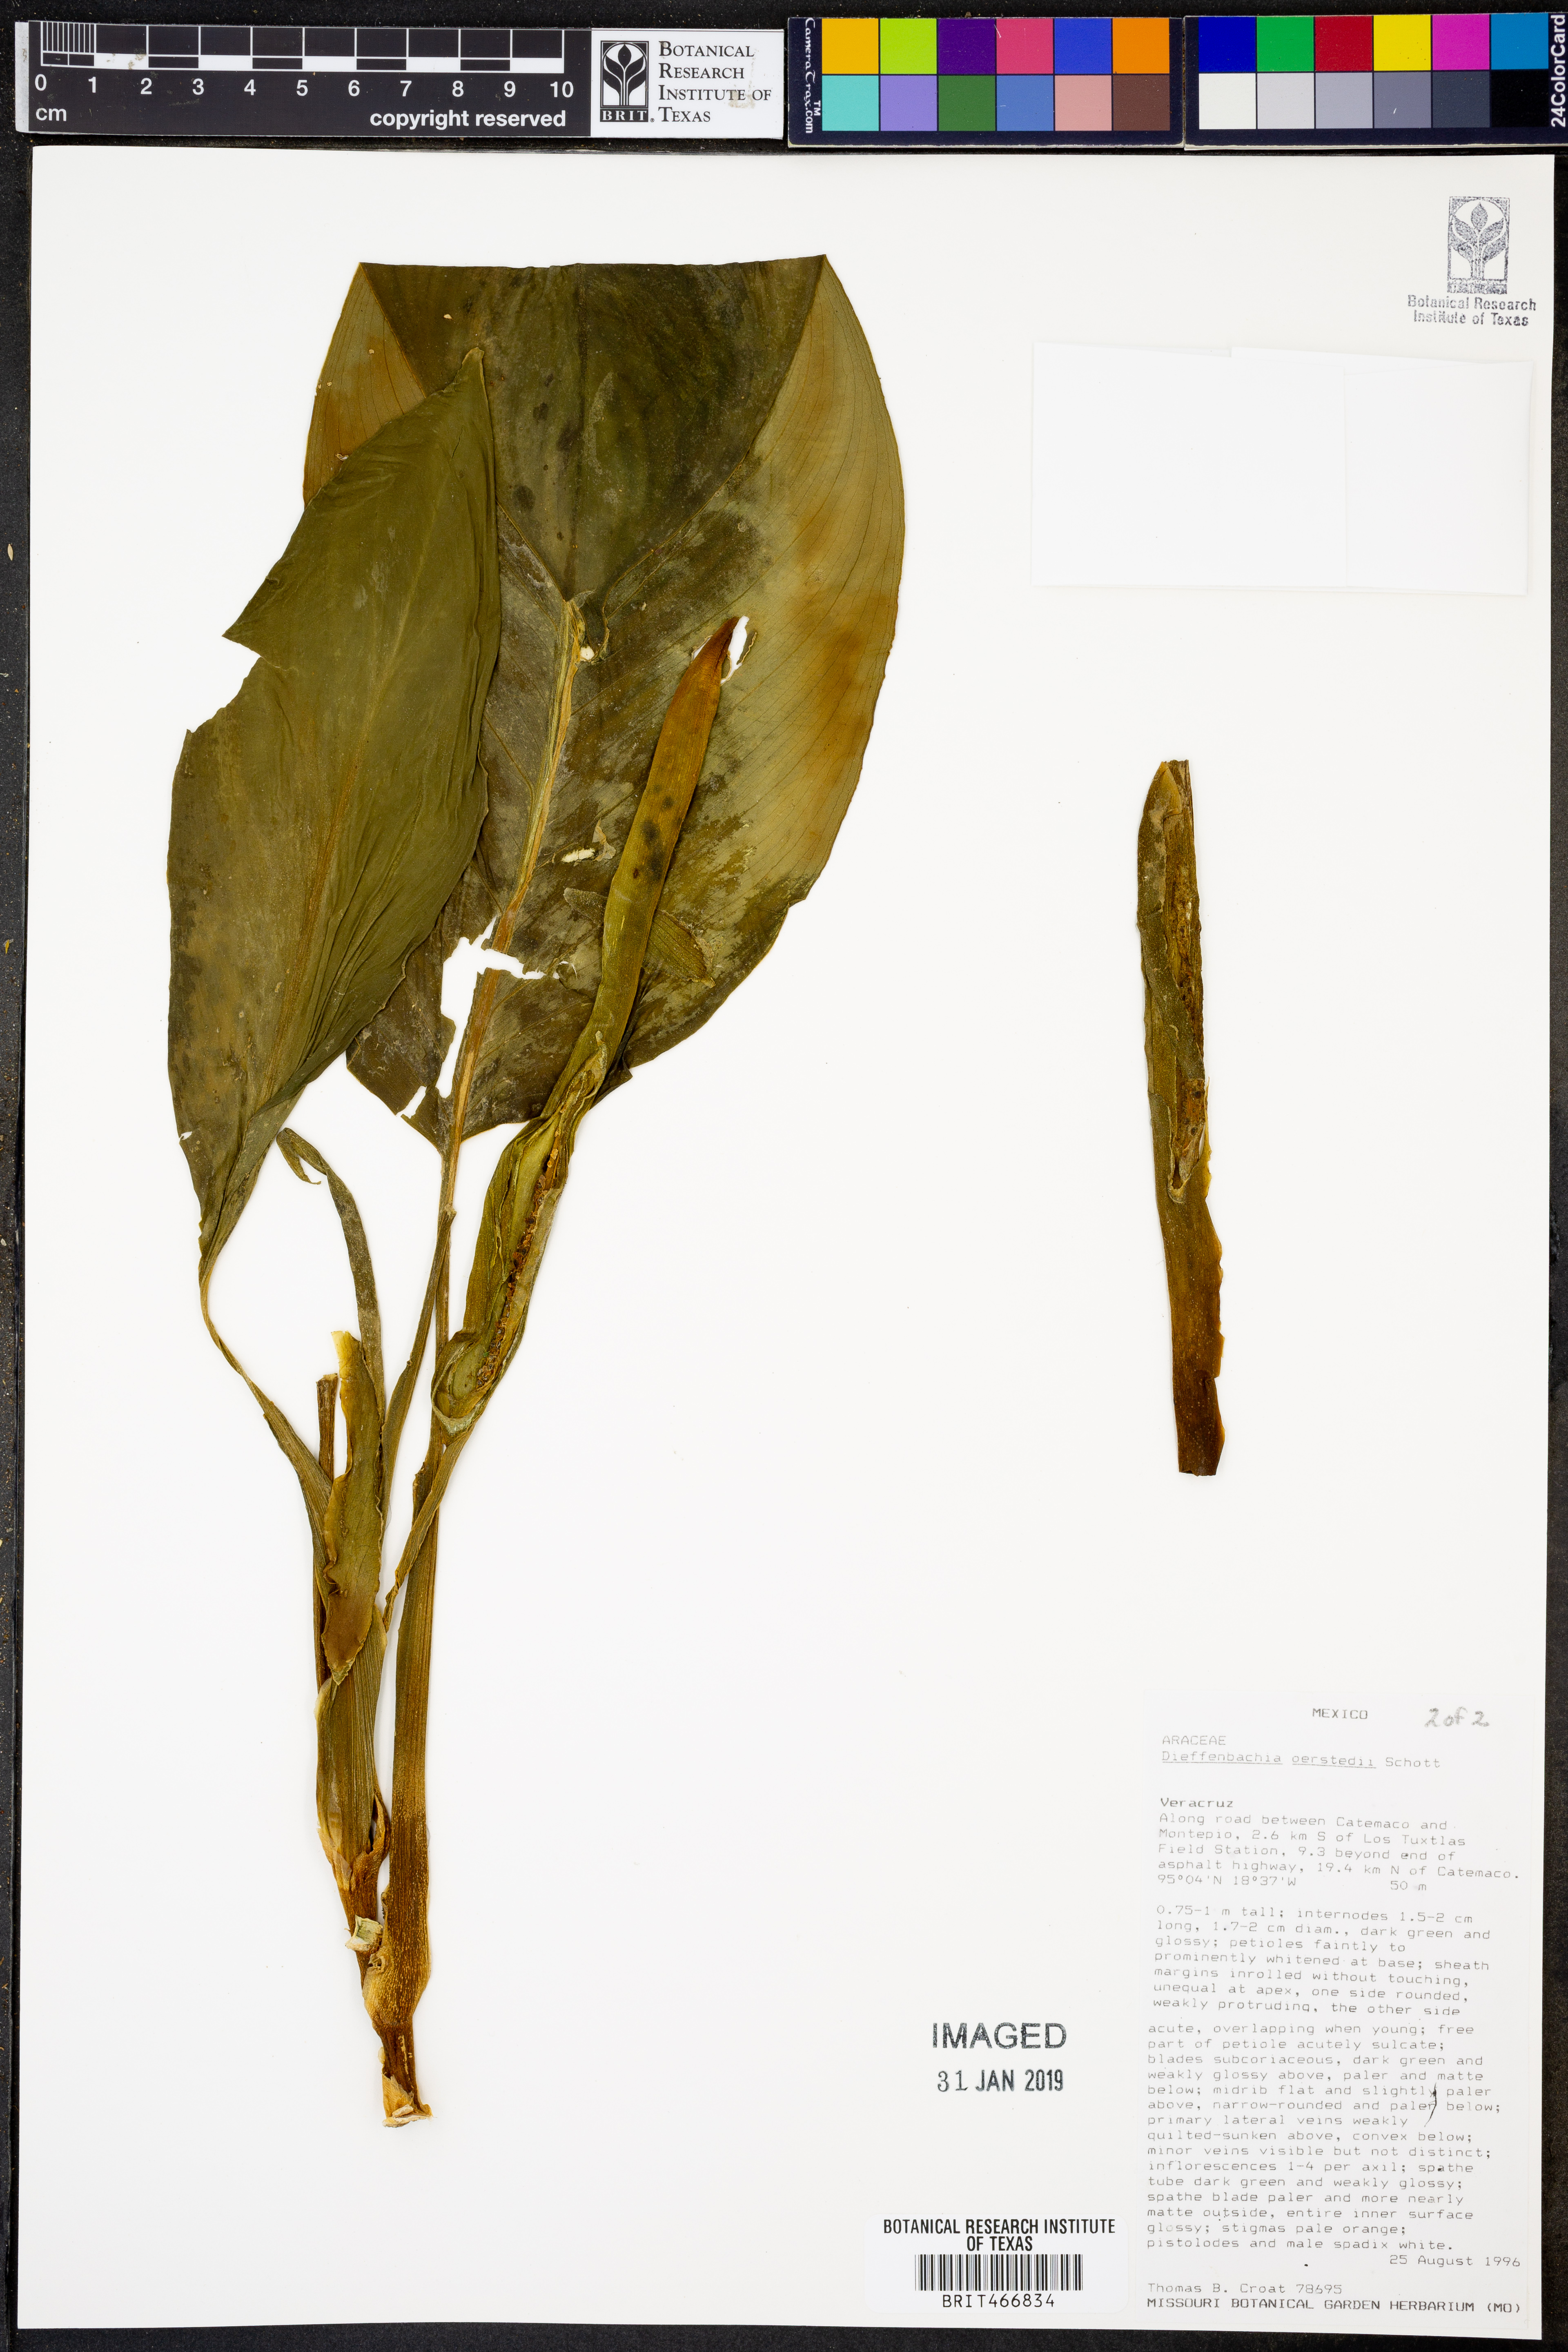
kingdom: Plantae
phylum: Tracheophyta
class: Liliopsida
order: Alismatales
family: Araceae
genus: Dieffenbachia
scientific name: Dieffenbachia oerstedii
